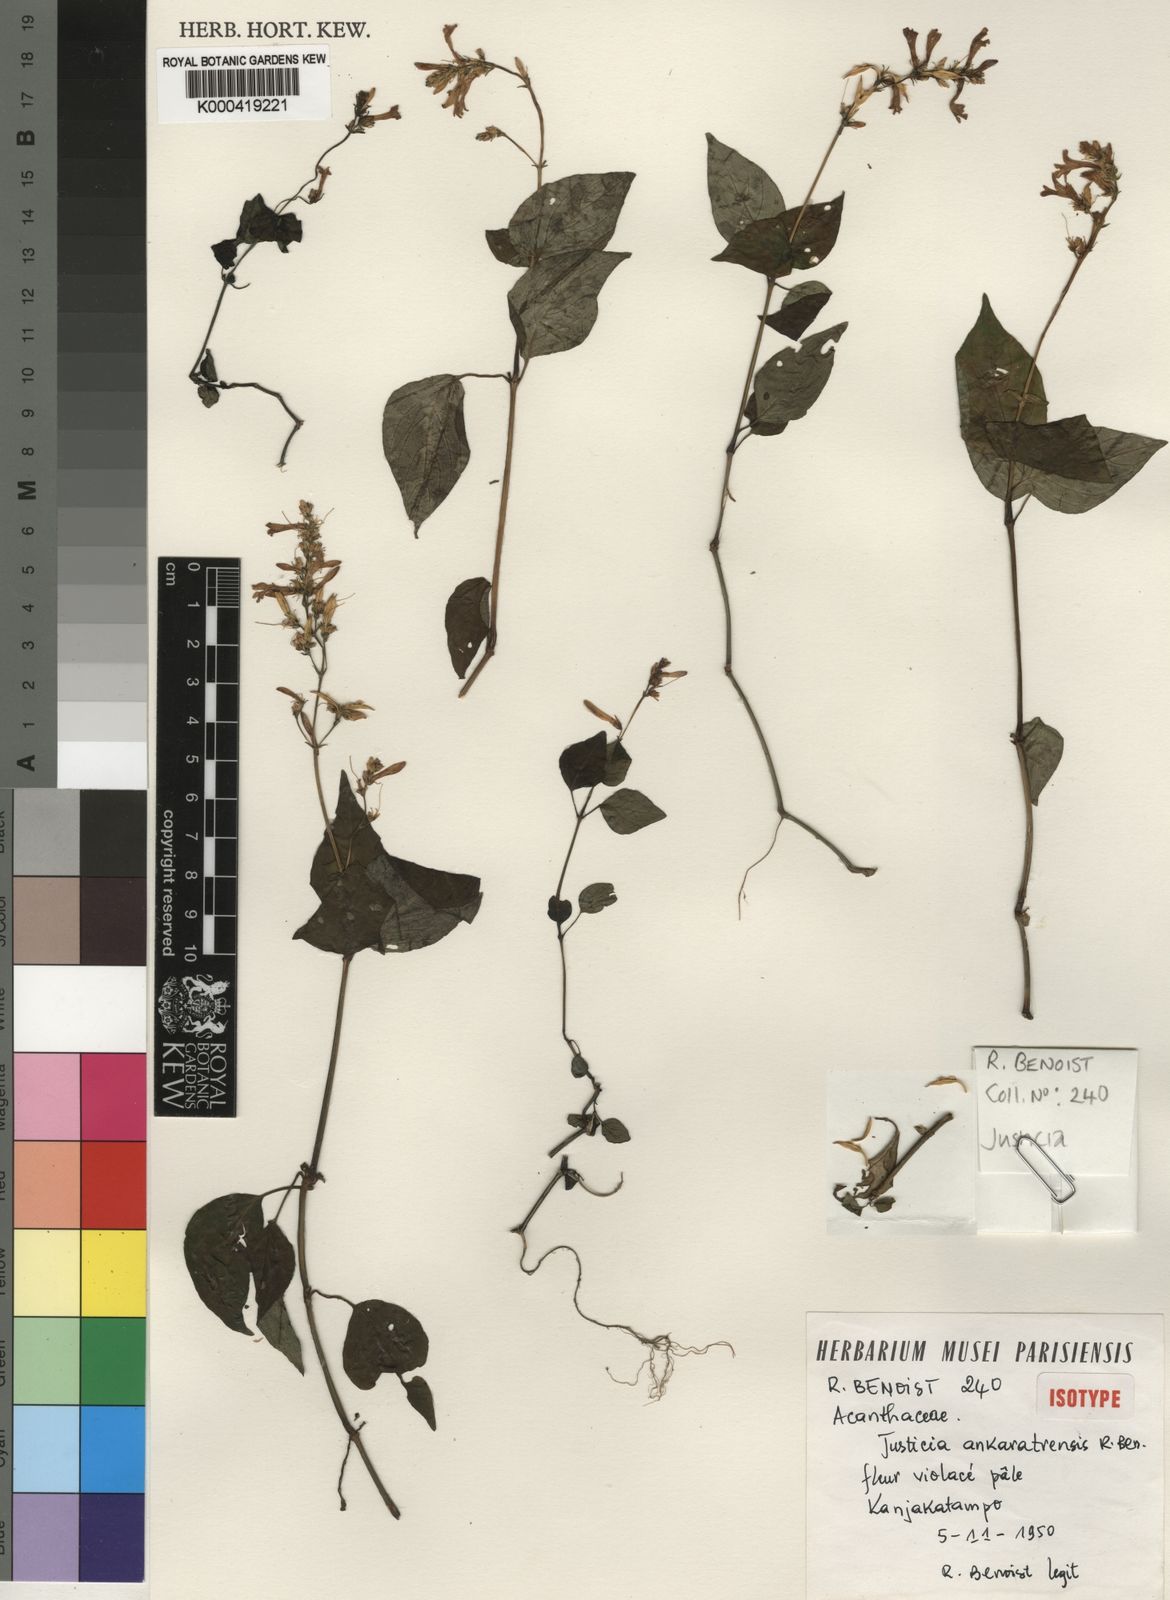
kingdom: Plantae
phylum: Tracheophyta
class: Magnoliopsida
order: Lamiales
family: Acanthaceae
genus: Justicia
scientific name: Justicia ankaratrensis
